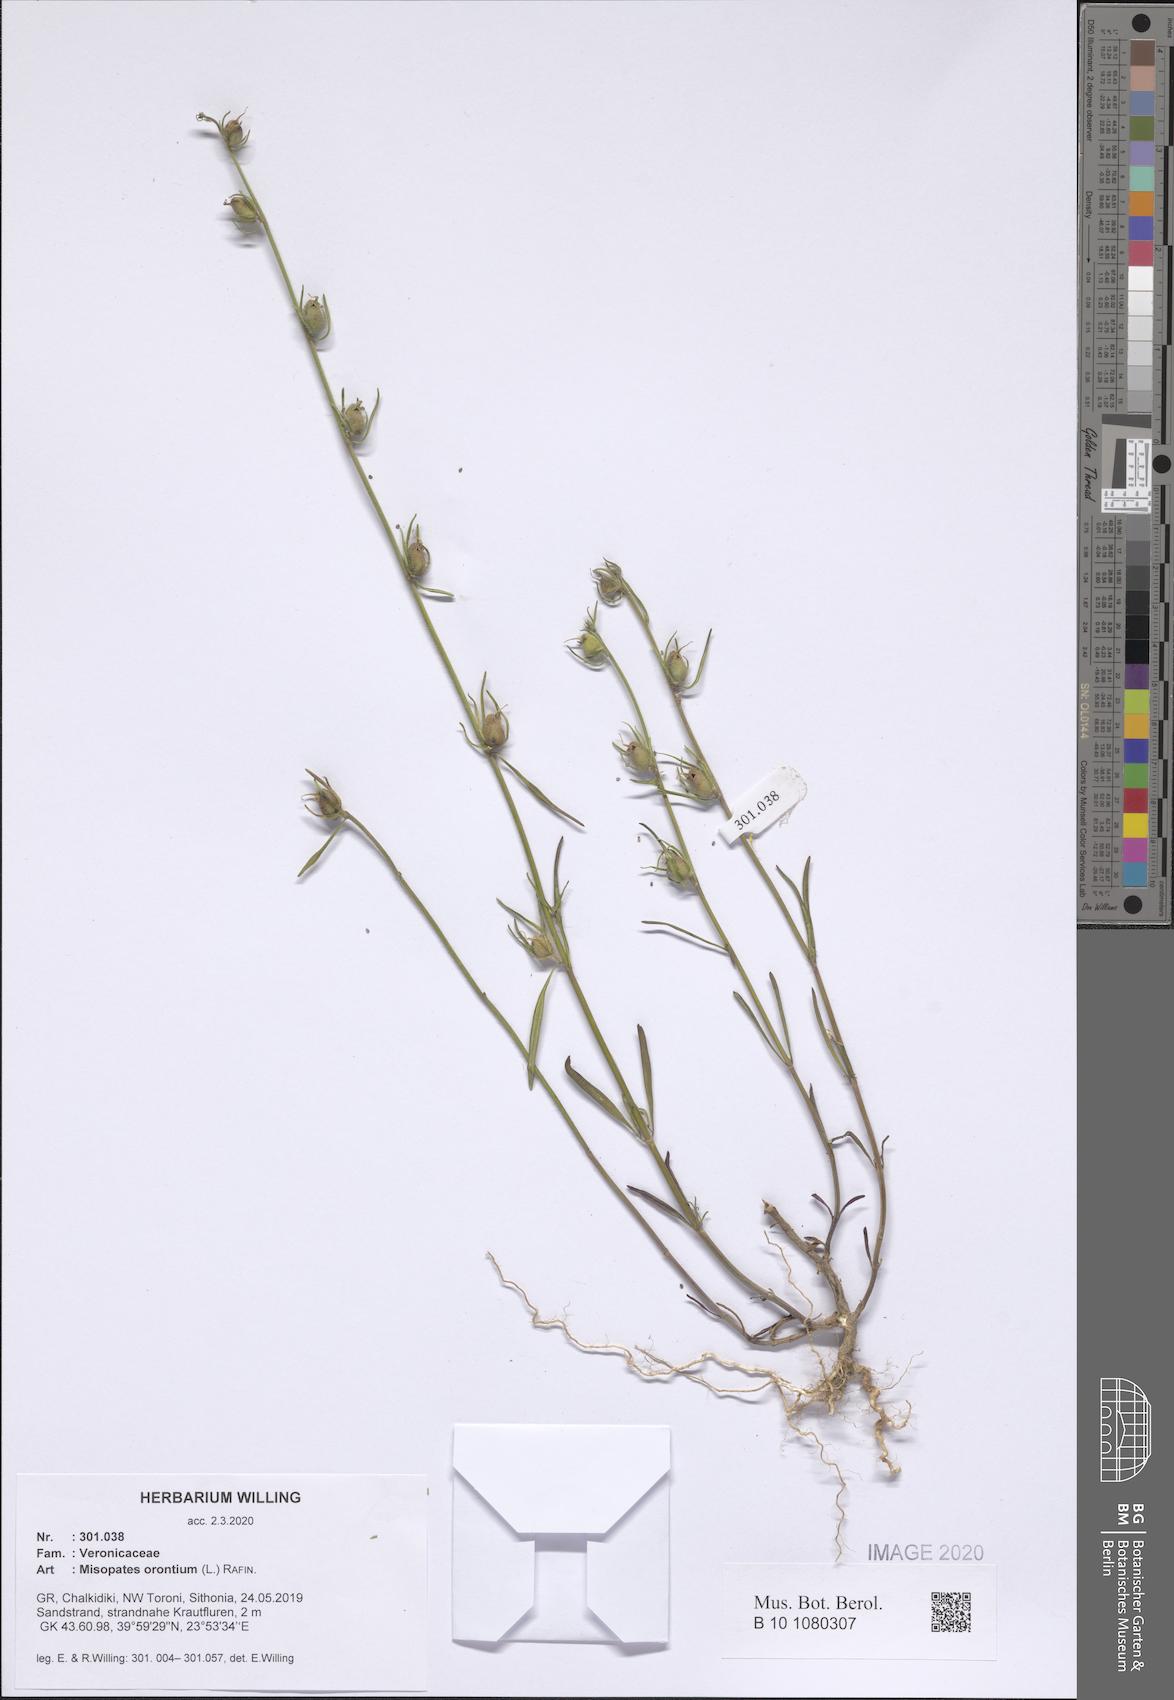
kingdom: Plantae
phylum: Tracheophyta
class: Magnoliopsida
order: Lamiales
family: Plantaginaceae
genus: Misopates
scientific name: Misopates orontium
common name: Weasel's-snout
